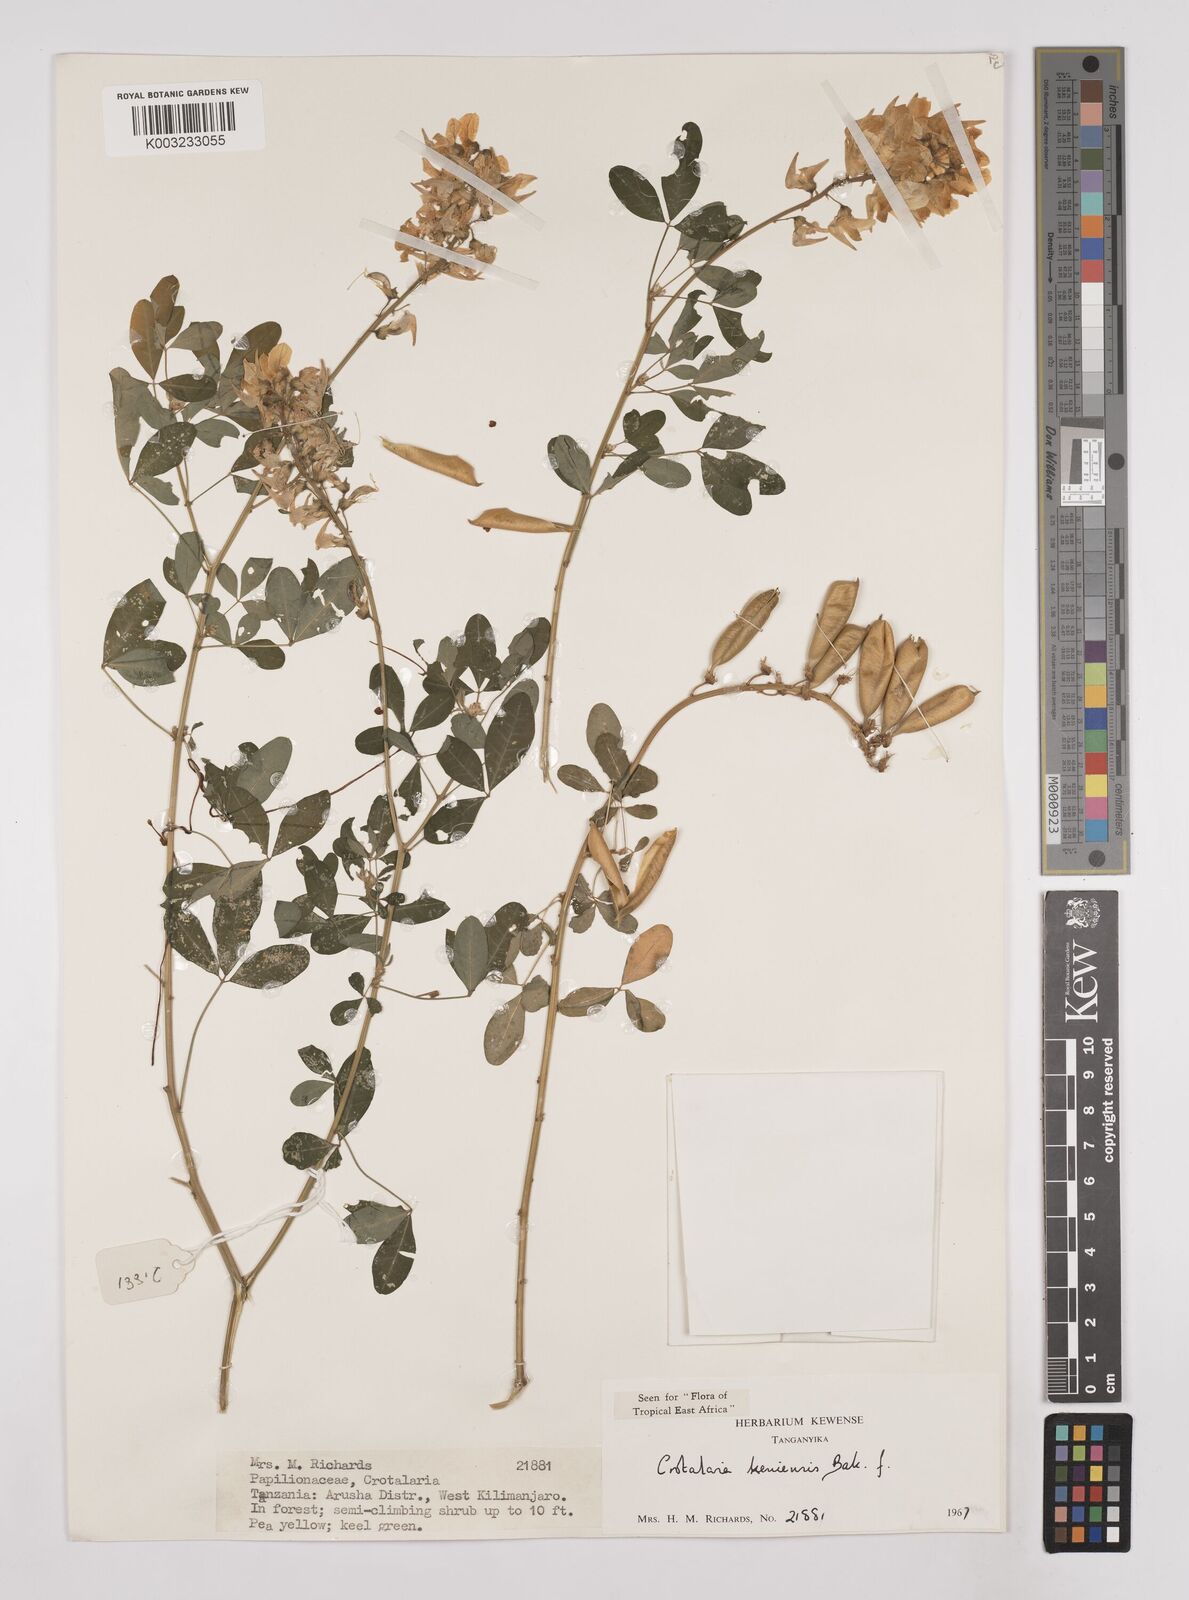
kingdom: Plantae
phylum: Tracheophyta
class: Magnoliopsida
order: Fabales
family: Fabaceae
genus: Crotalaria
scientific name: Crotalaria keniensis
